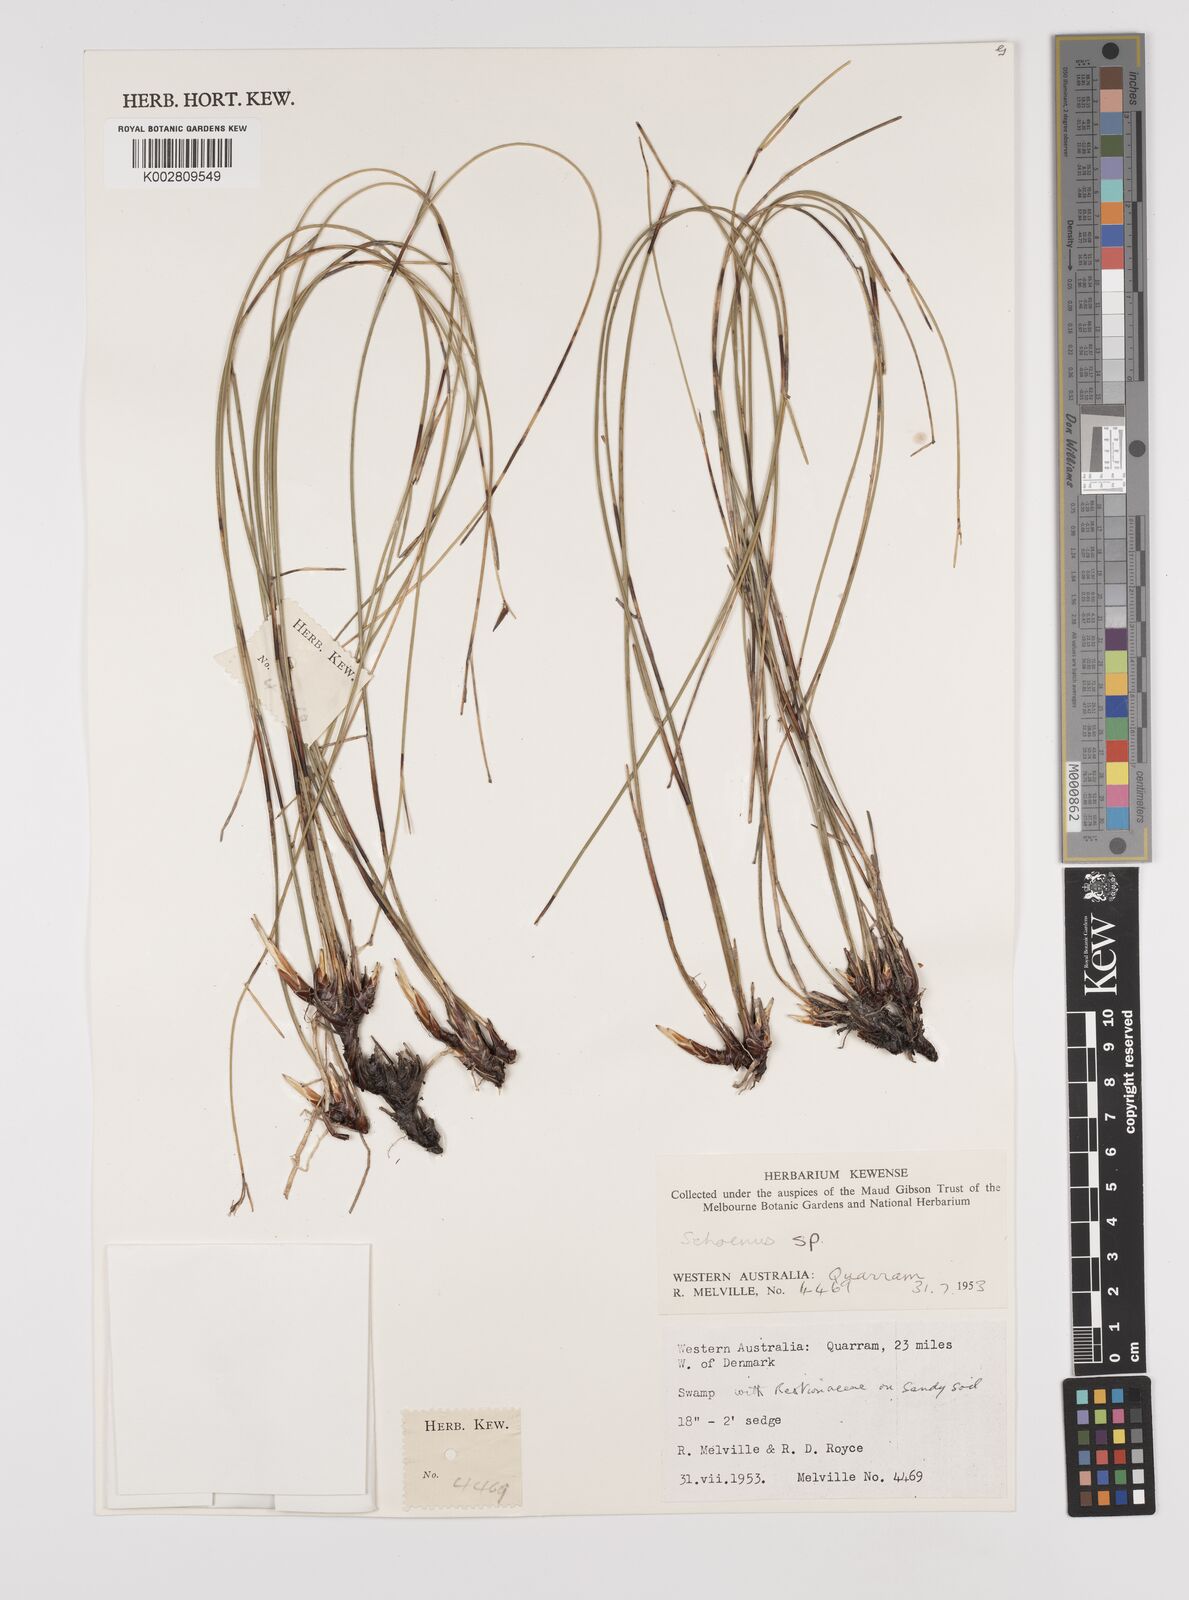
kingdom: Plantae
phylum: Tracheophyta
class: Liliopsida
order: Poales
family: Cyperaceae
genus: Schoenus
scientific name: Schoenus
